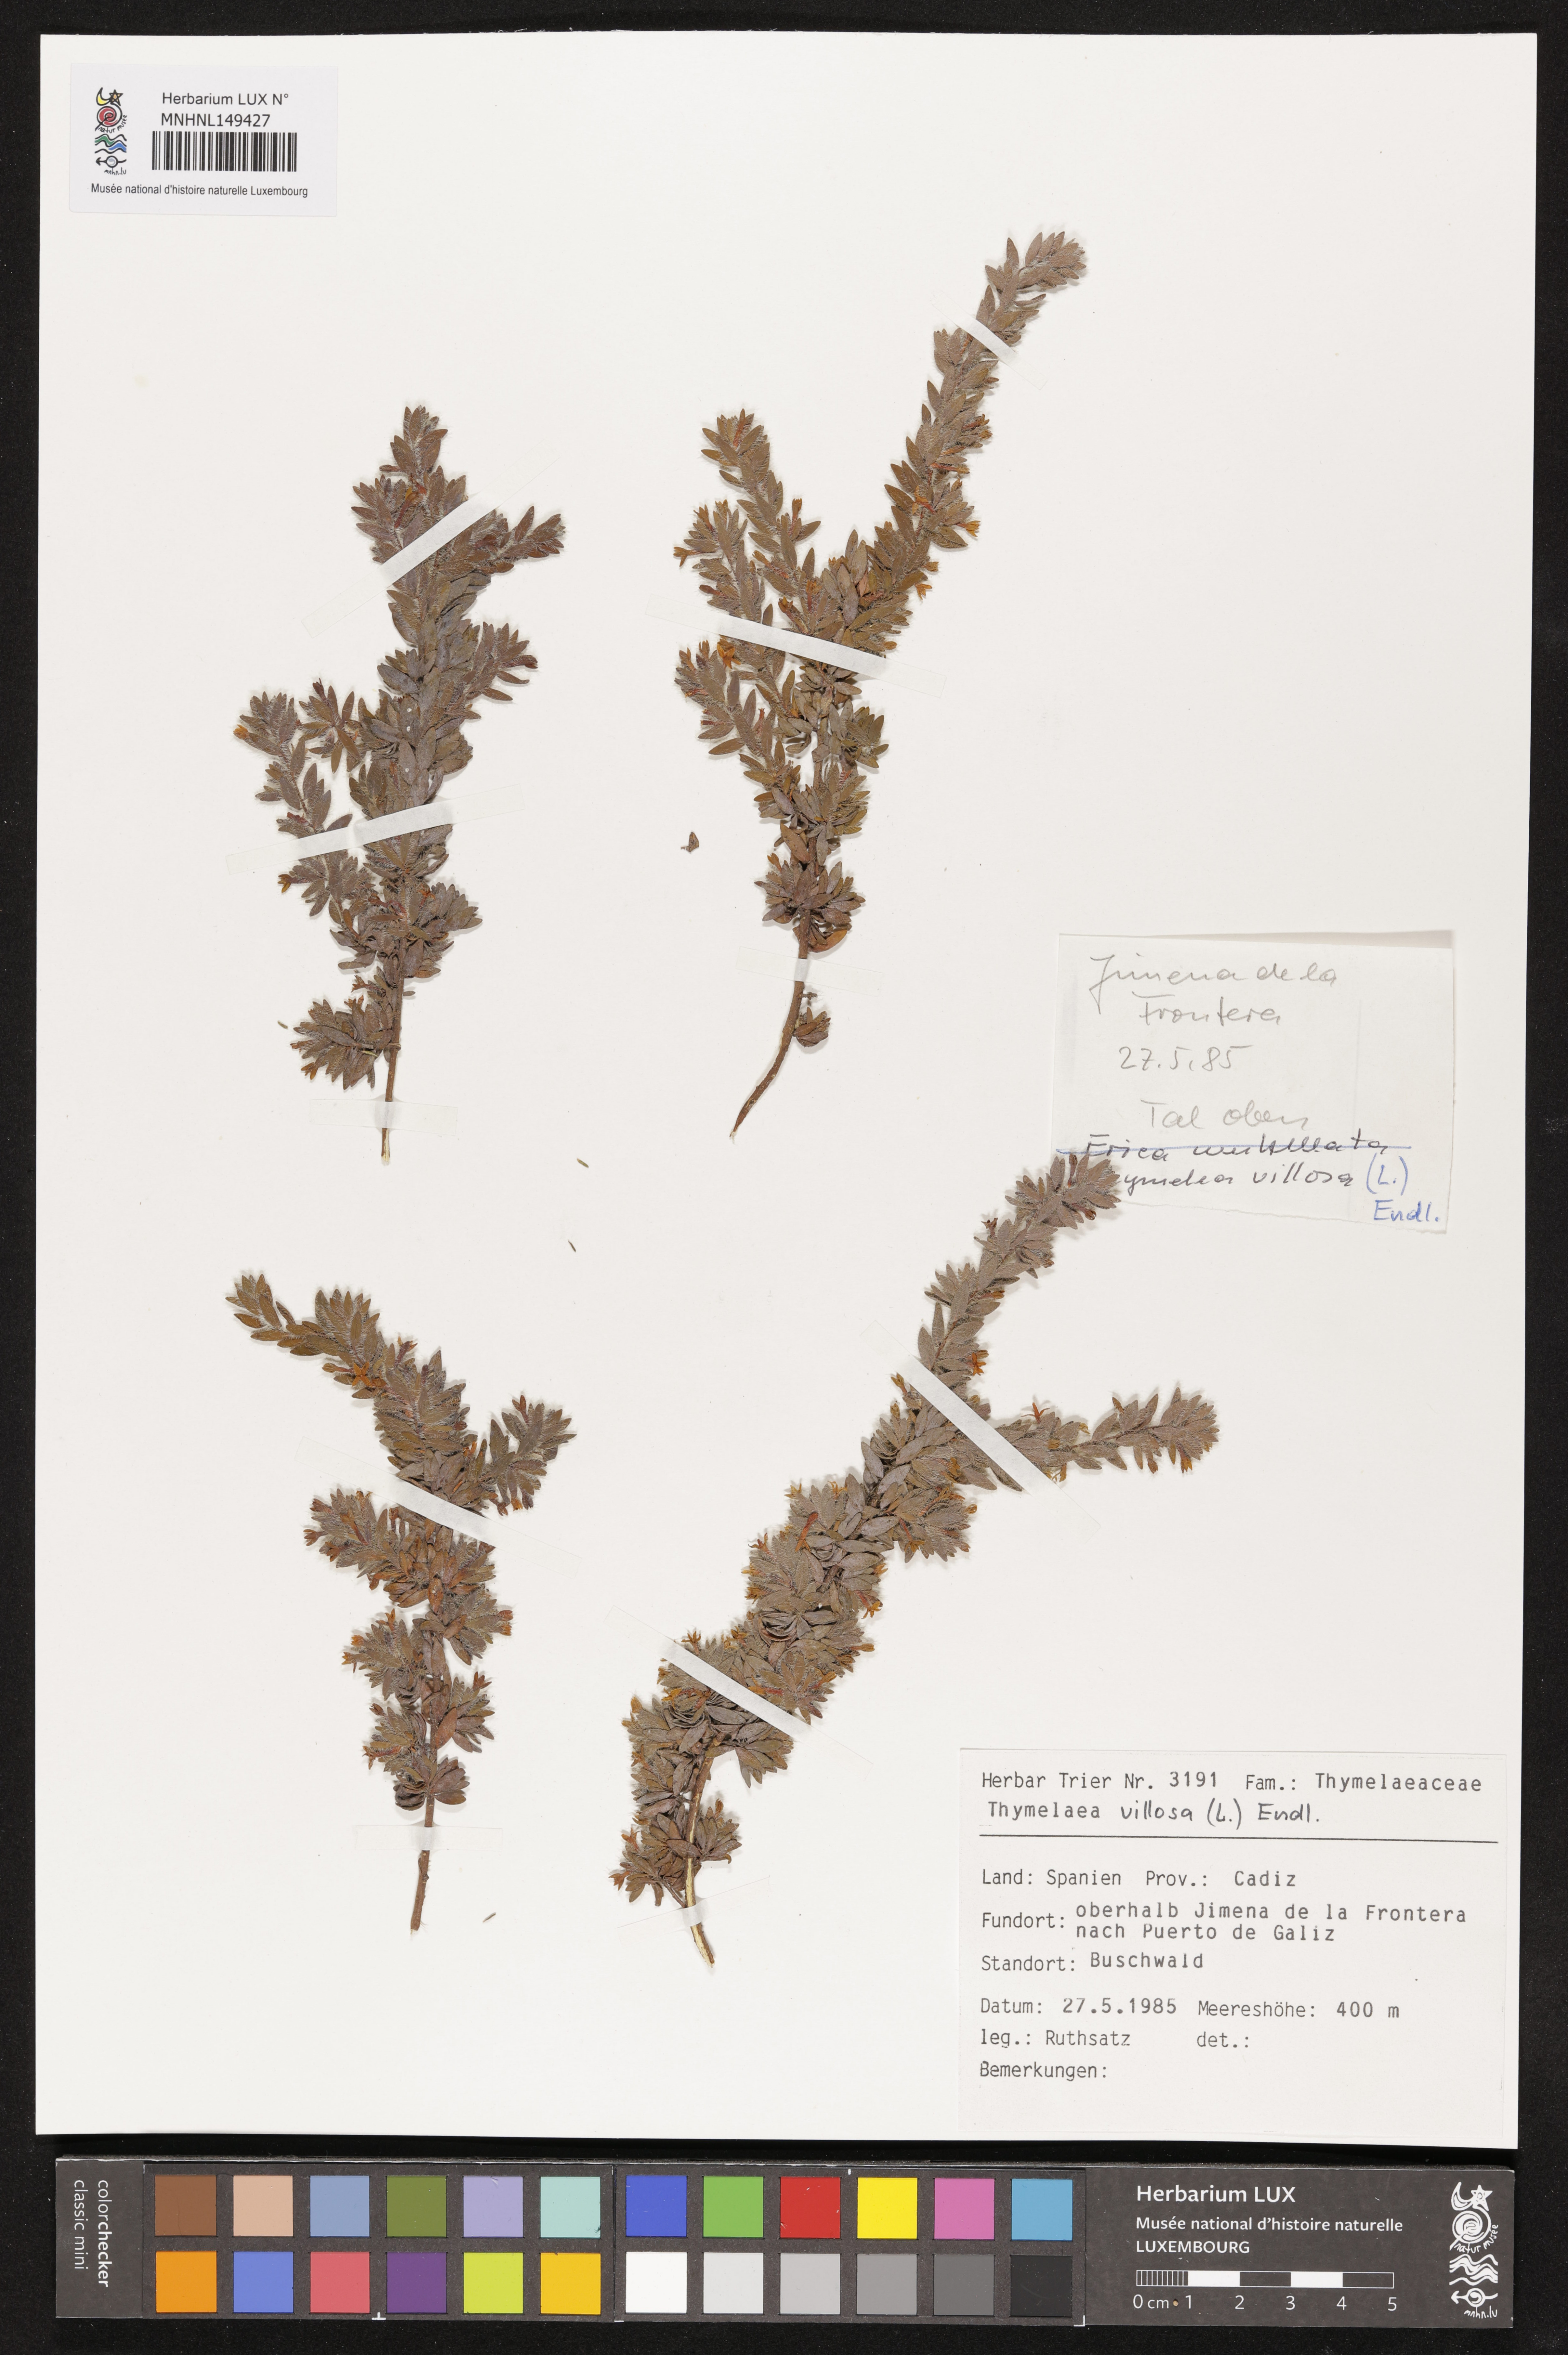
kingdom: Plantae
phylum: Tracheophyta
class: Magnoliopsida
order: Malvales
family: Thymelaeaceae
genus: Thymelaea
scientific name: Thymelaea villosa
